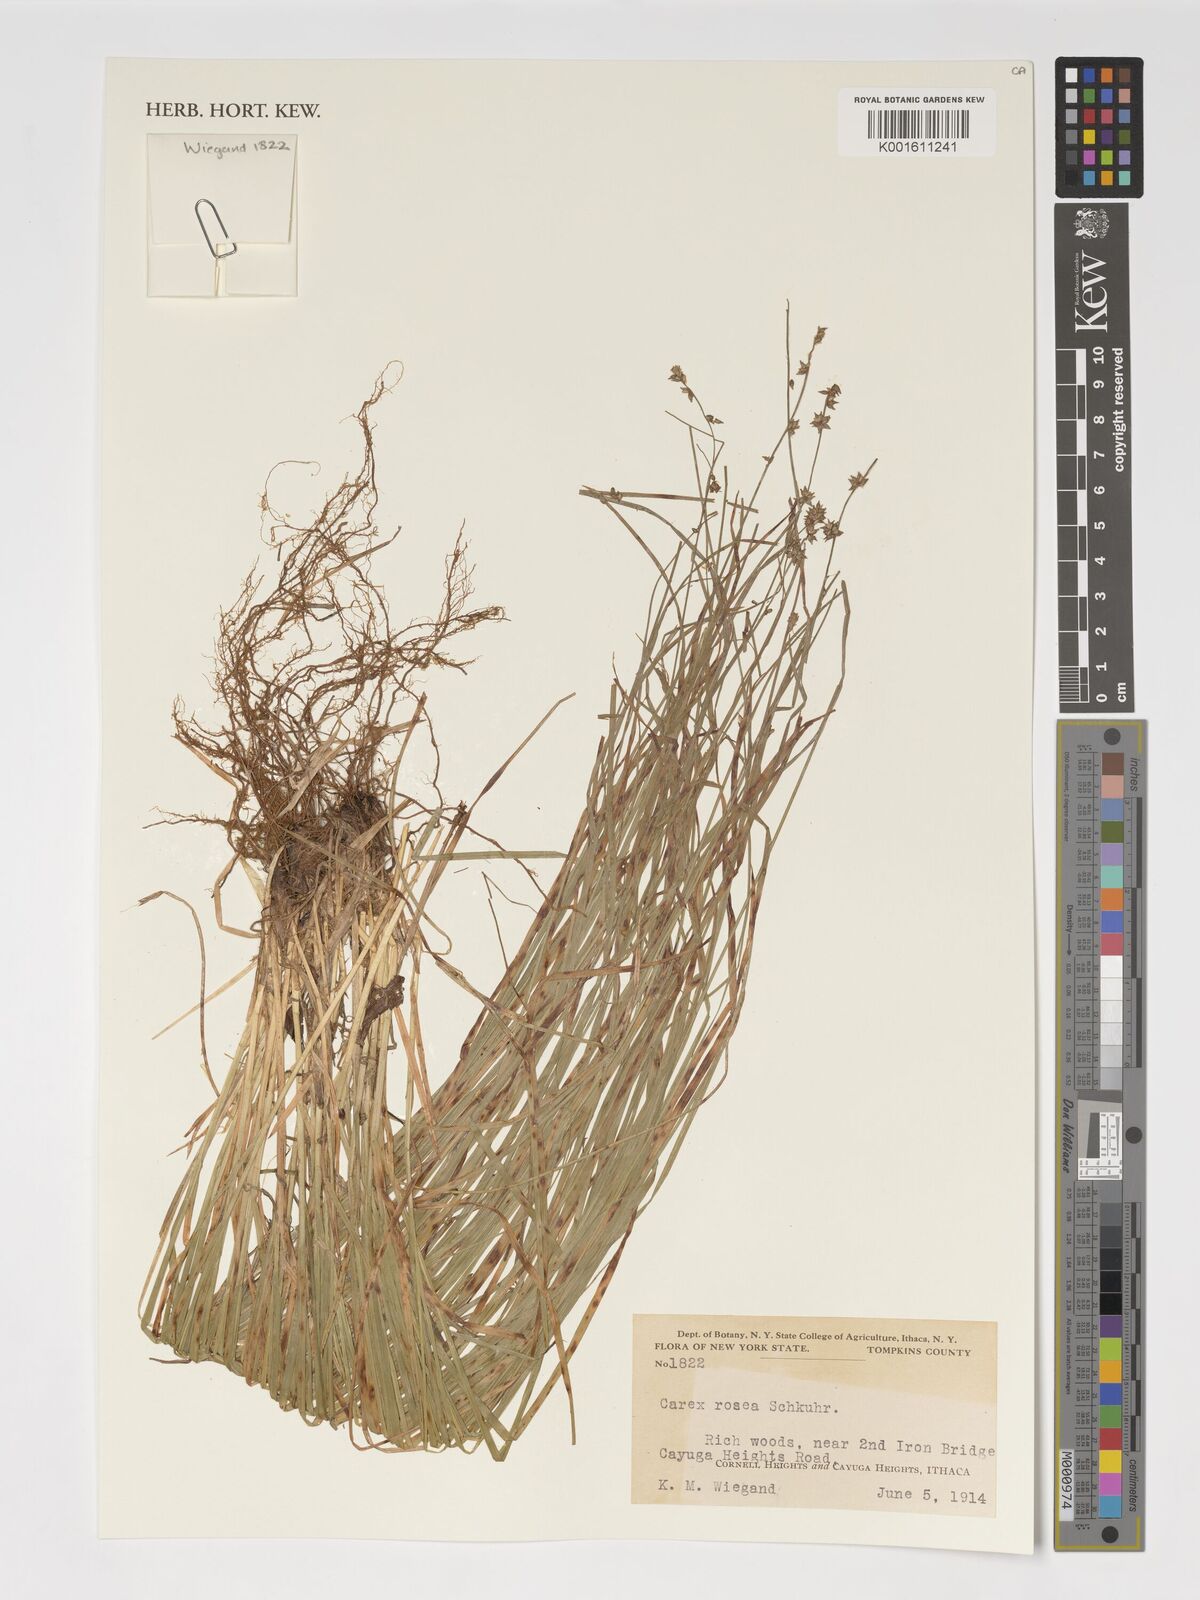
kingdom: Plantae
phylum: Tracheophyta
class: Liliopsida
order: Poales
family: Cyperaceae
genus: Carex
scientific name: Carex rosea
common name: Curly-styled wood sedge
